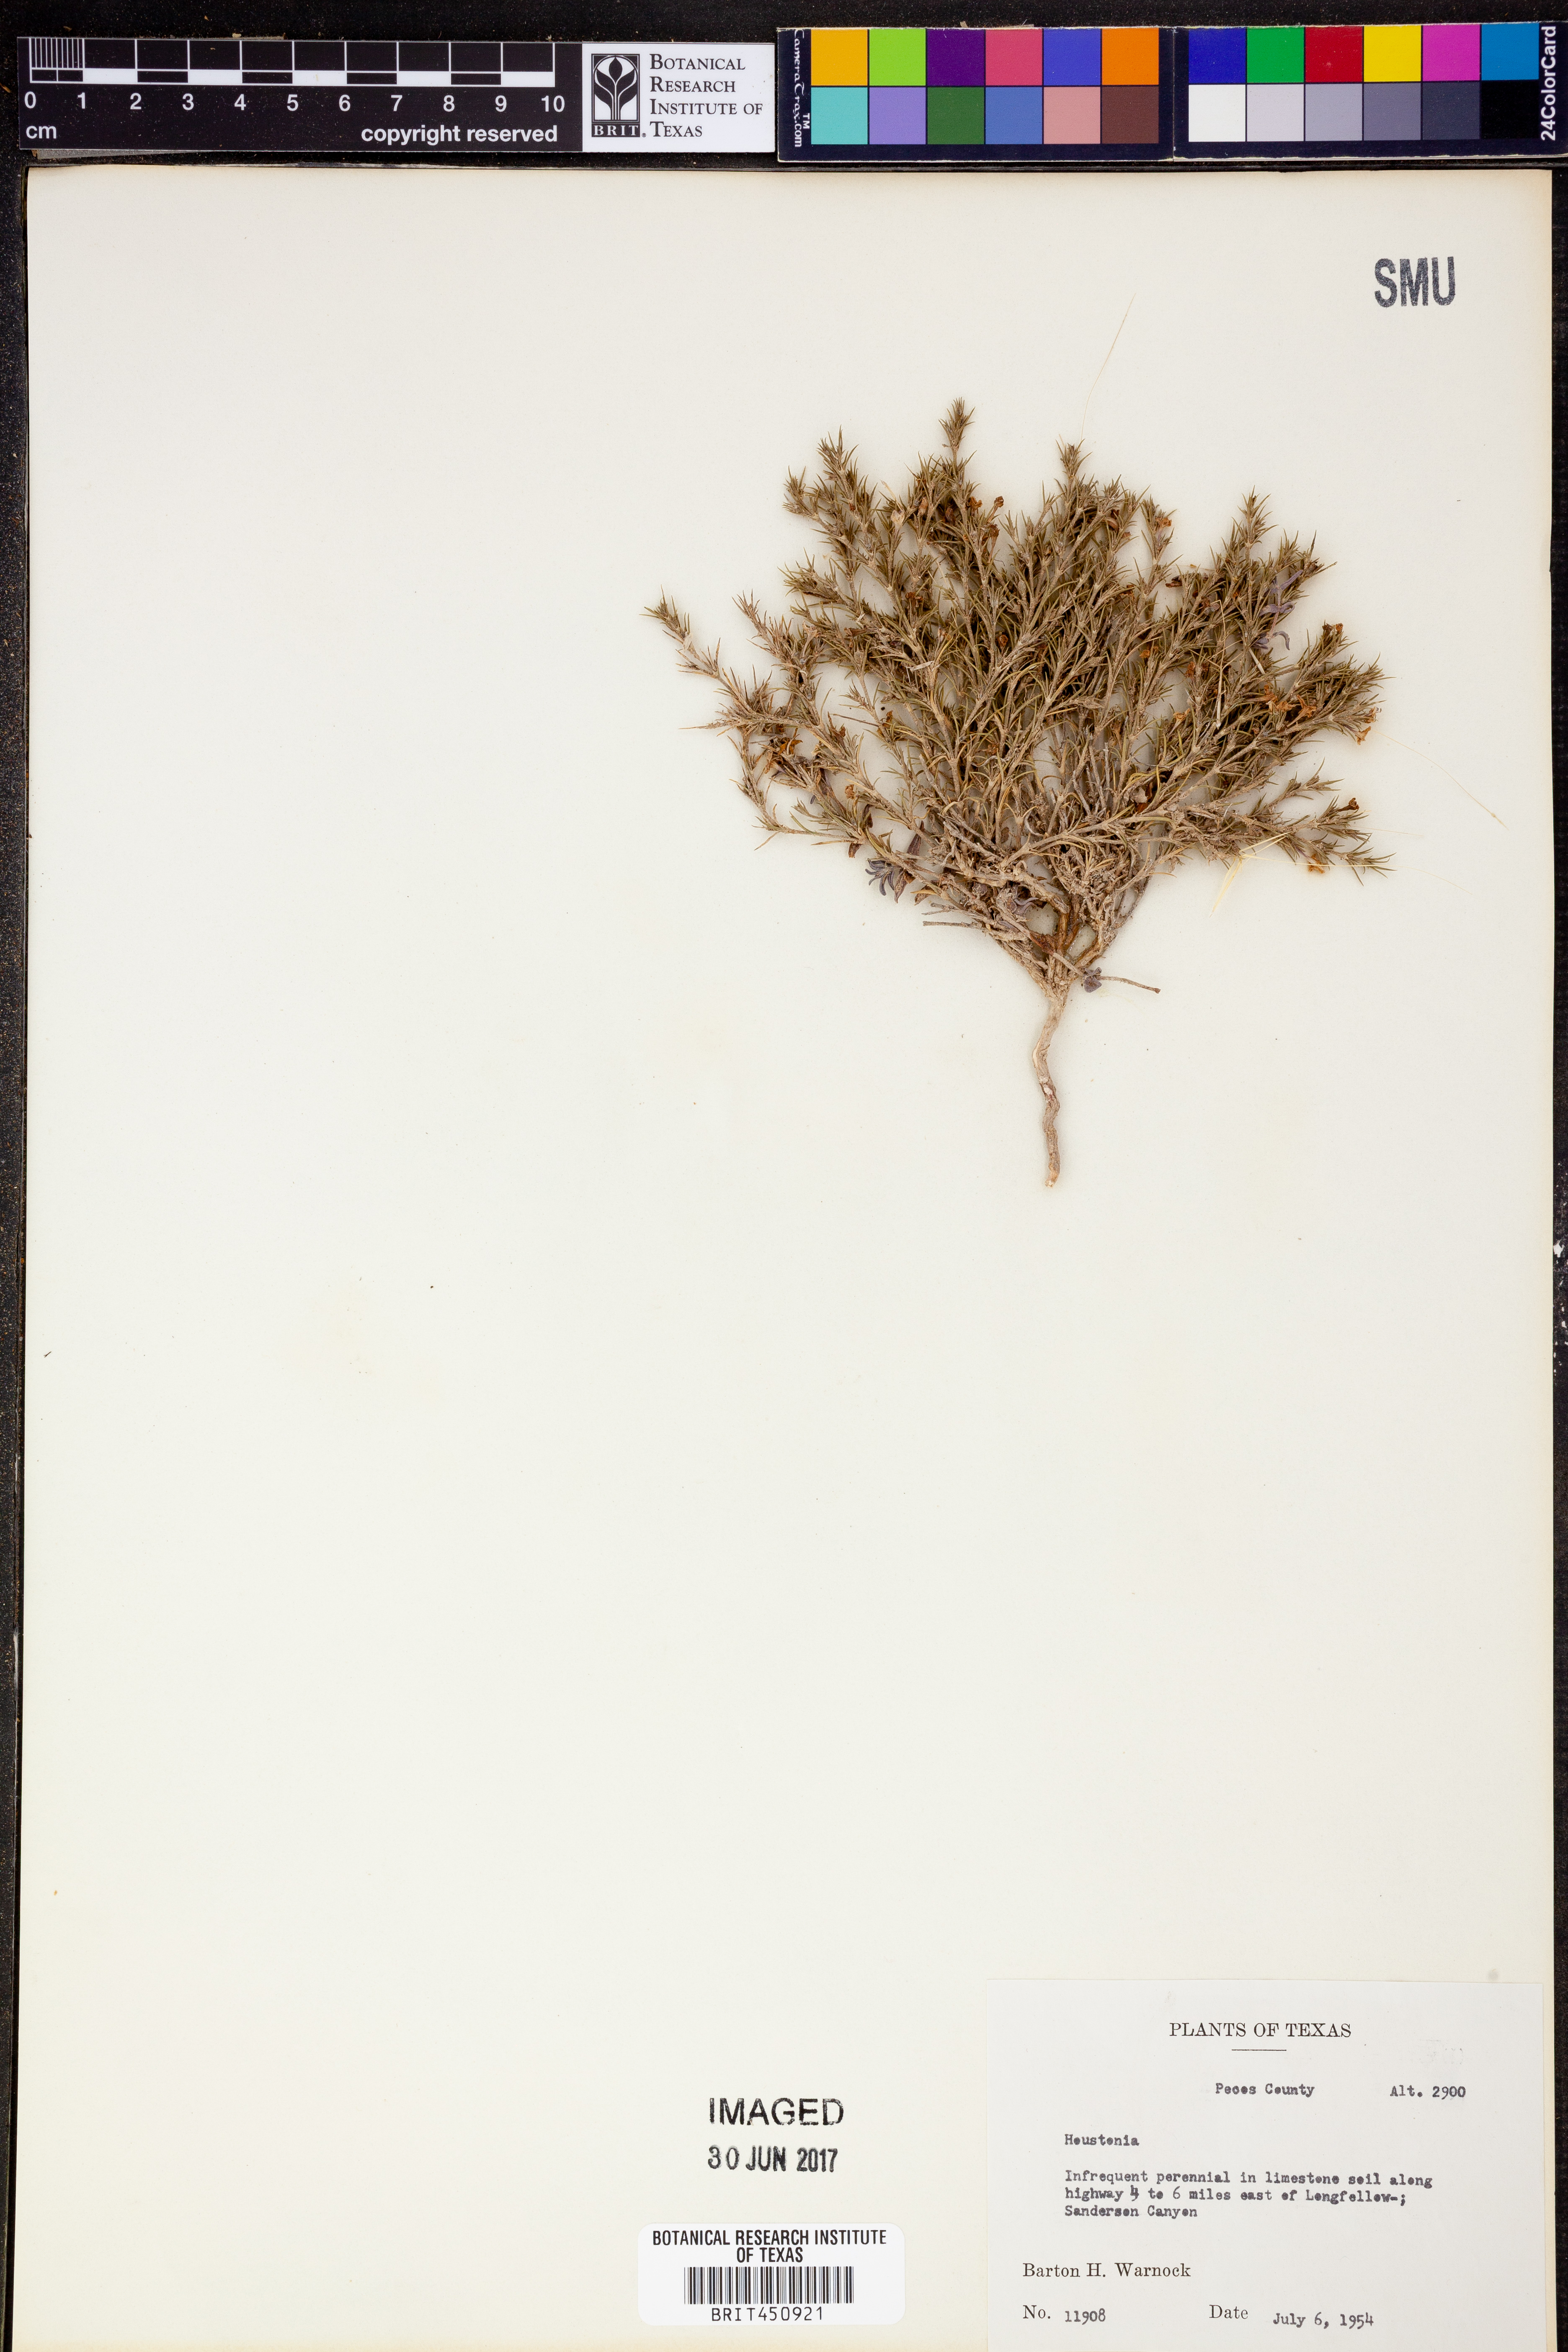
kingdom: Plantae
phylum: Tracheophyta
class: Magnoliopsida
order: Gentianales
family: Rubiaceae
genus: Houstonia
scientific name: Houstonia
